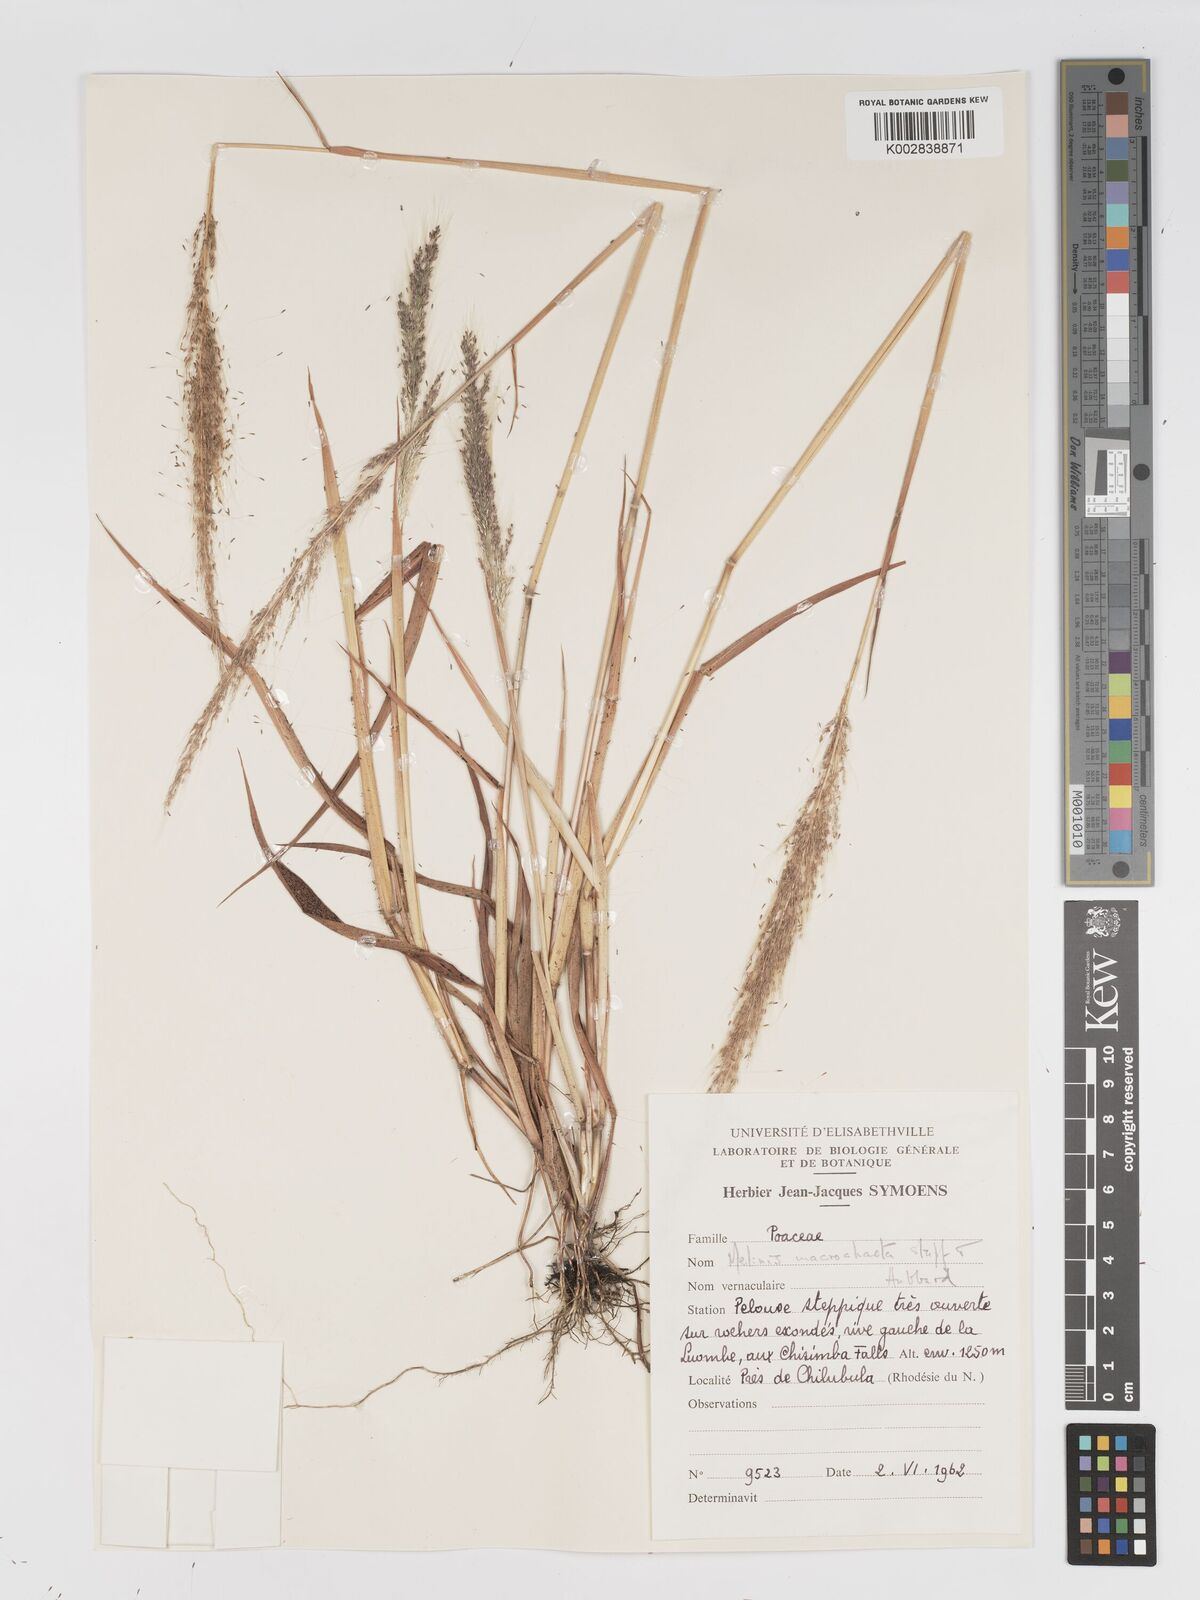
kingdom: Plantae
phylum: Tracheophyta
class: Liliopsida
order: Poales
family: Poaceae
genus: Melinis
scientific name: Melinis macrochaeta
